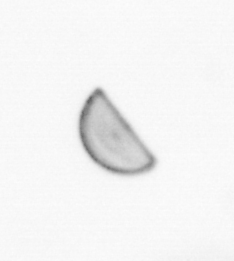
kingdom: Chromista
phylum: Ochrophyta
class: Bacillariophyceae
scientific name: Bacillariophyceae
